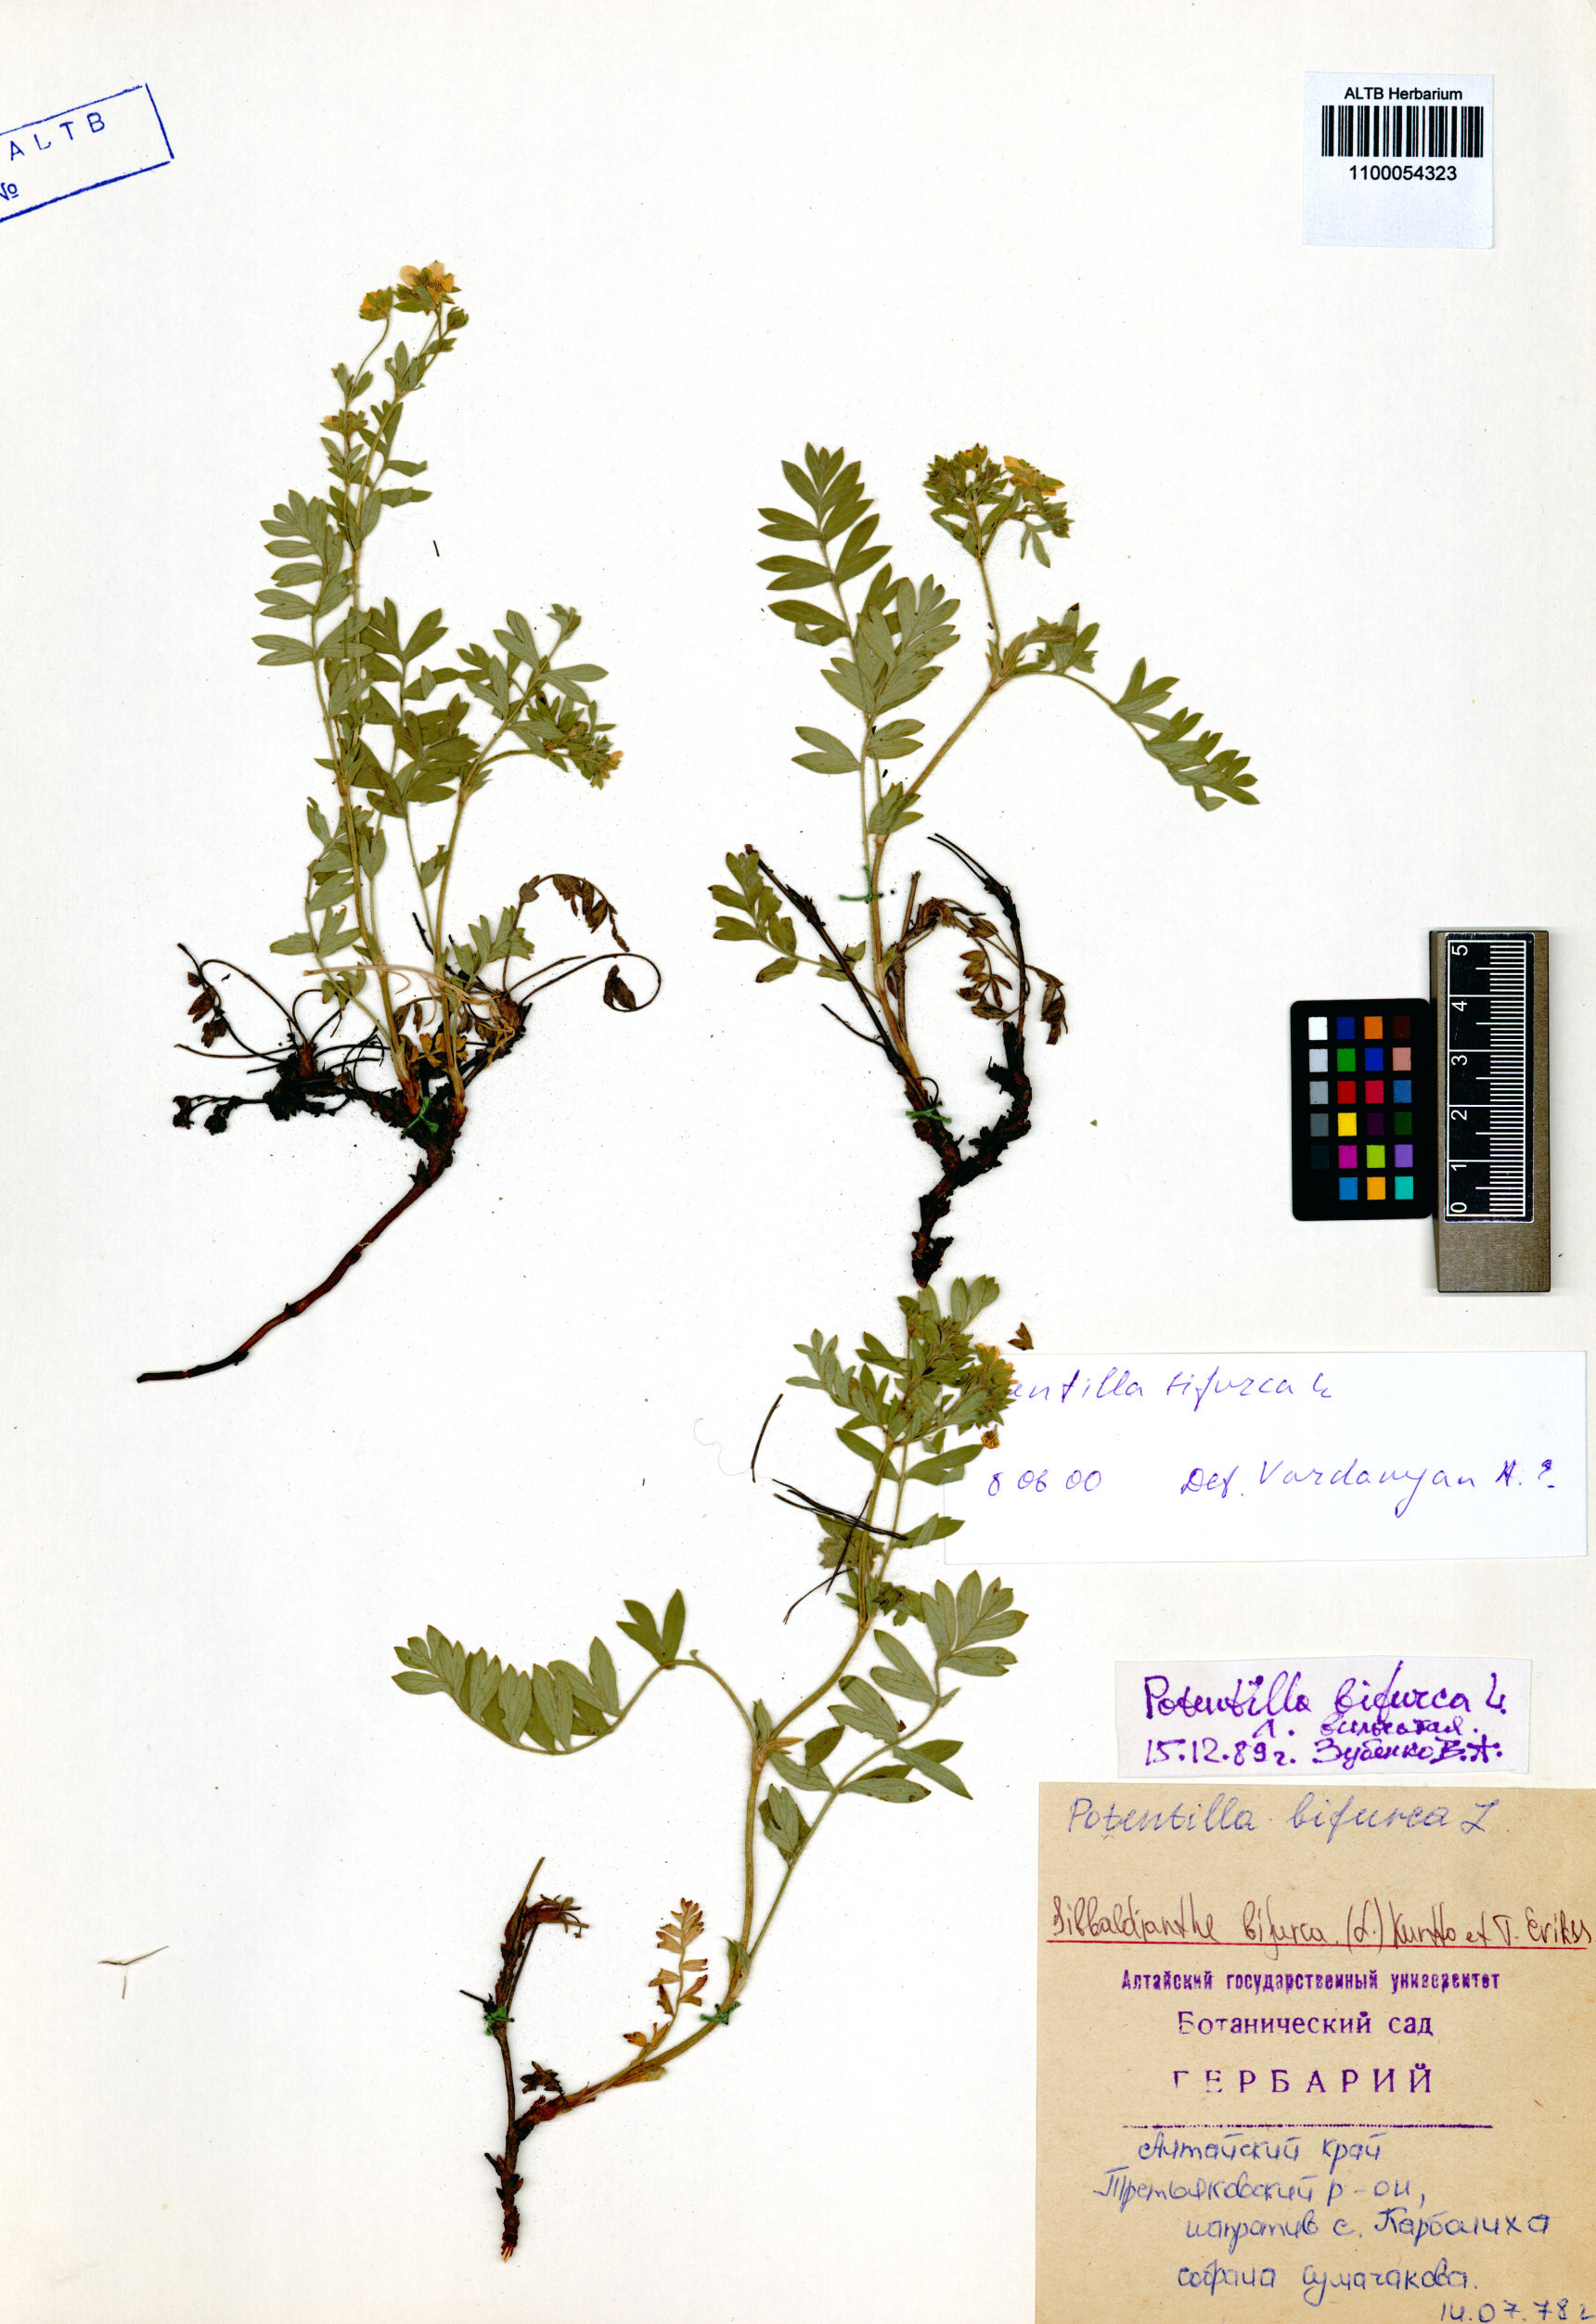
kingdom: Plantae
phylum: Tracheophyta
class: Magnoliopsida
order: Rosales
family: Rosaceae
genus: Sibbaldianthe
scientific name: Sibbaldianthe bifurca
